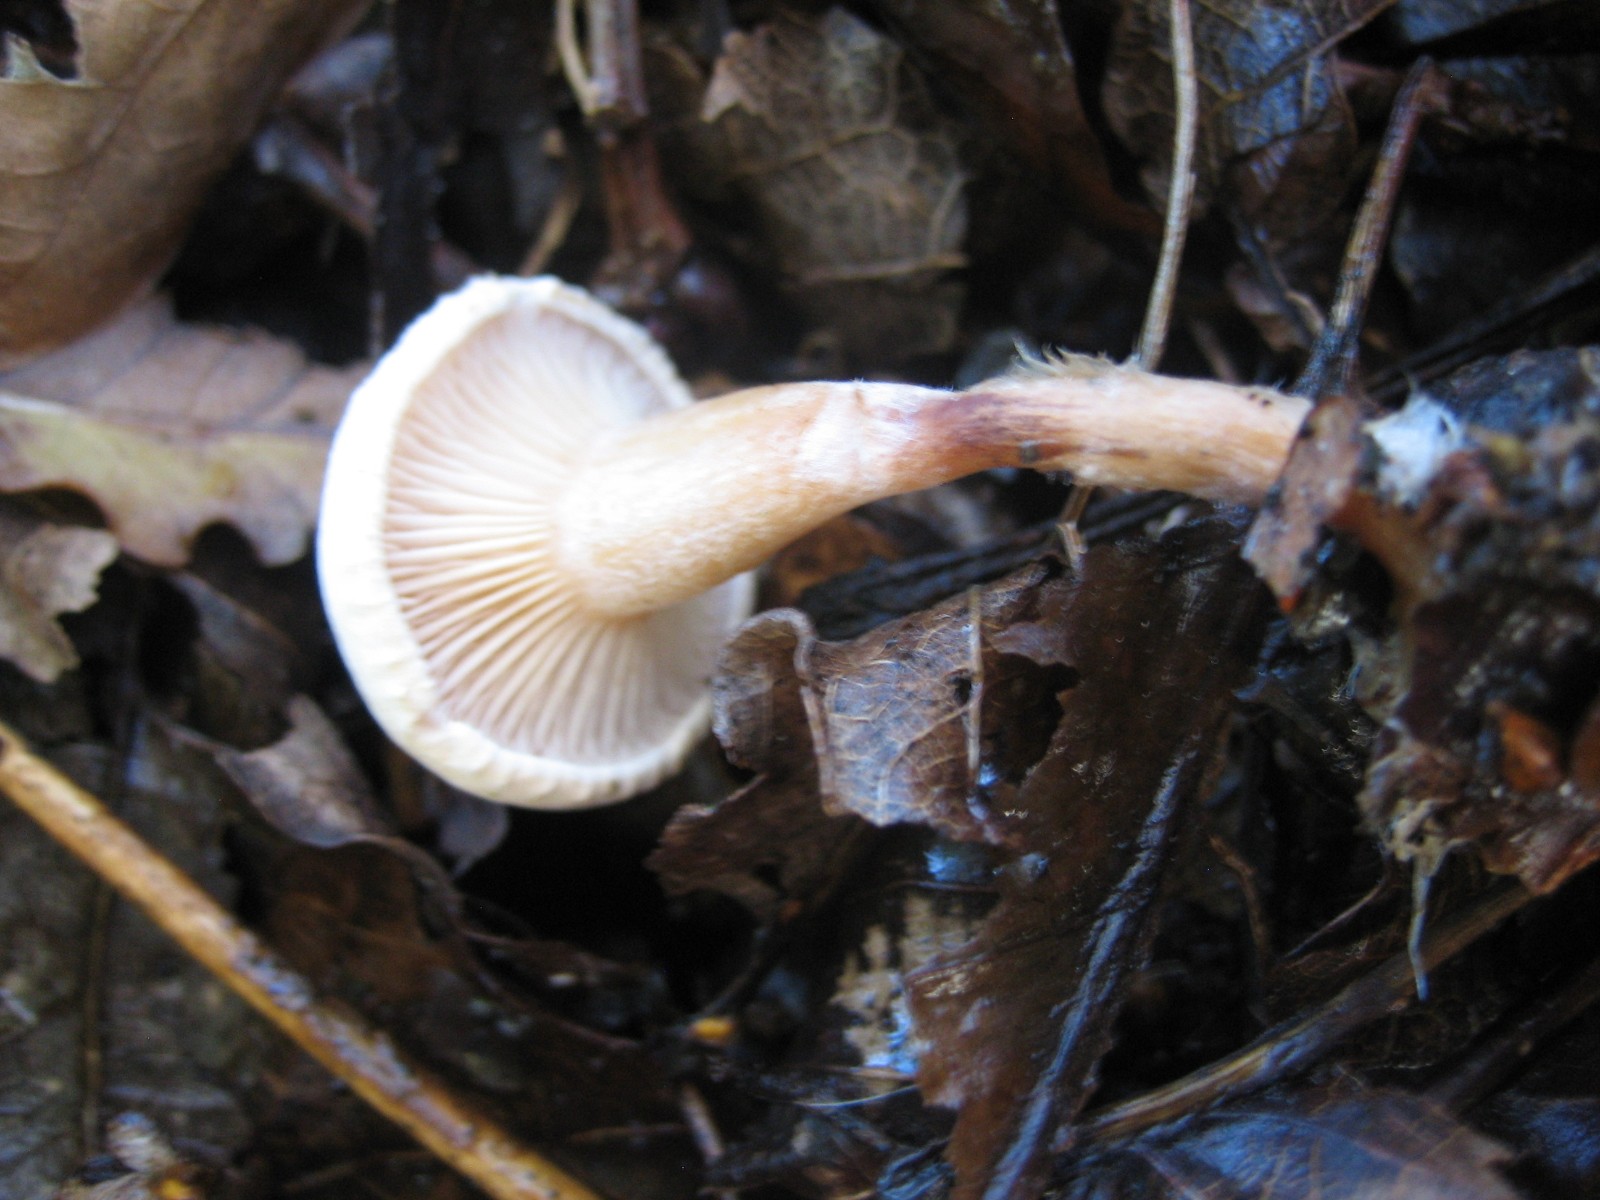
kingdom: Fungi
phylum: Basidiomycota
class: Agaricomycetes
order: Agaricales
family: Tricholomataceae
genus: Ripartites
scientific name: Ripartites tricholoma
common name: almindelig skæghat
